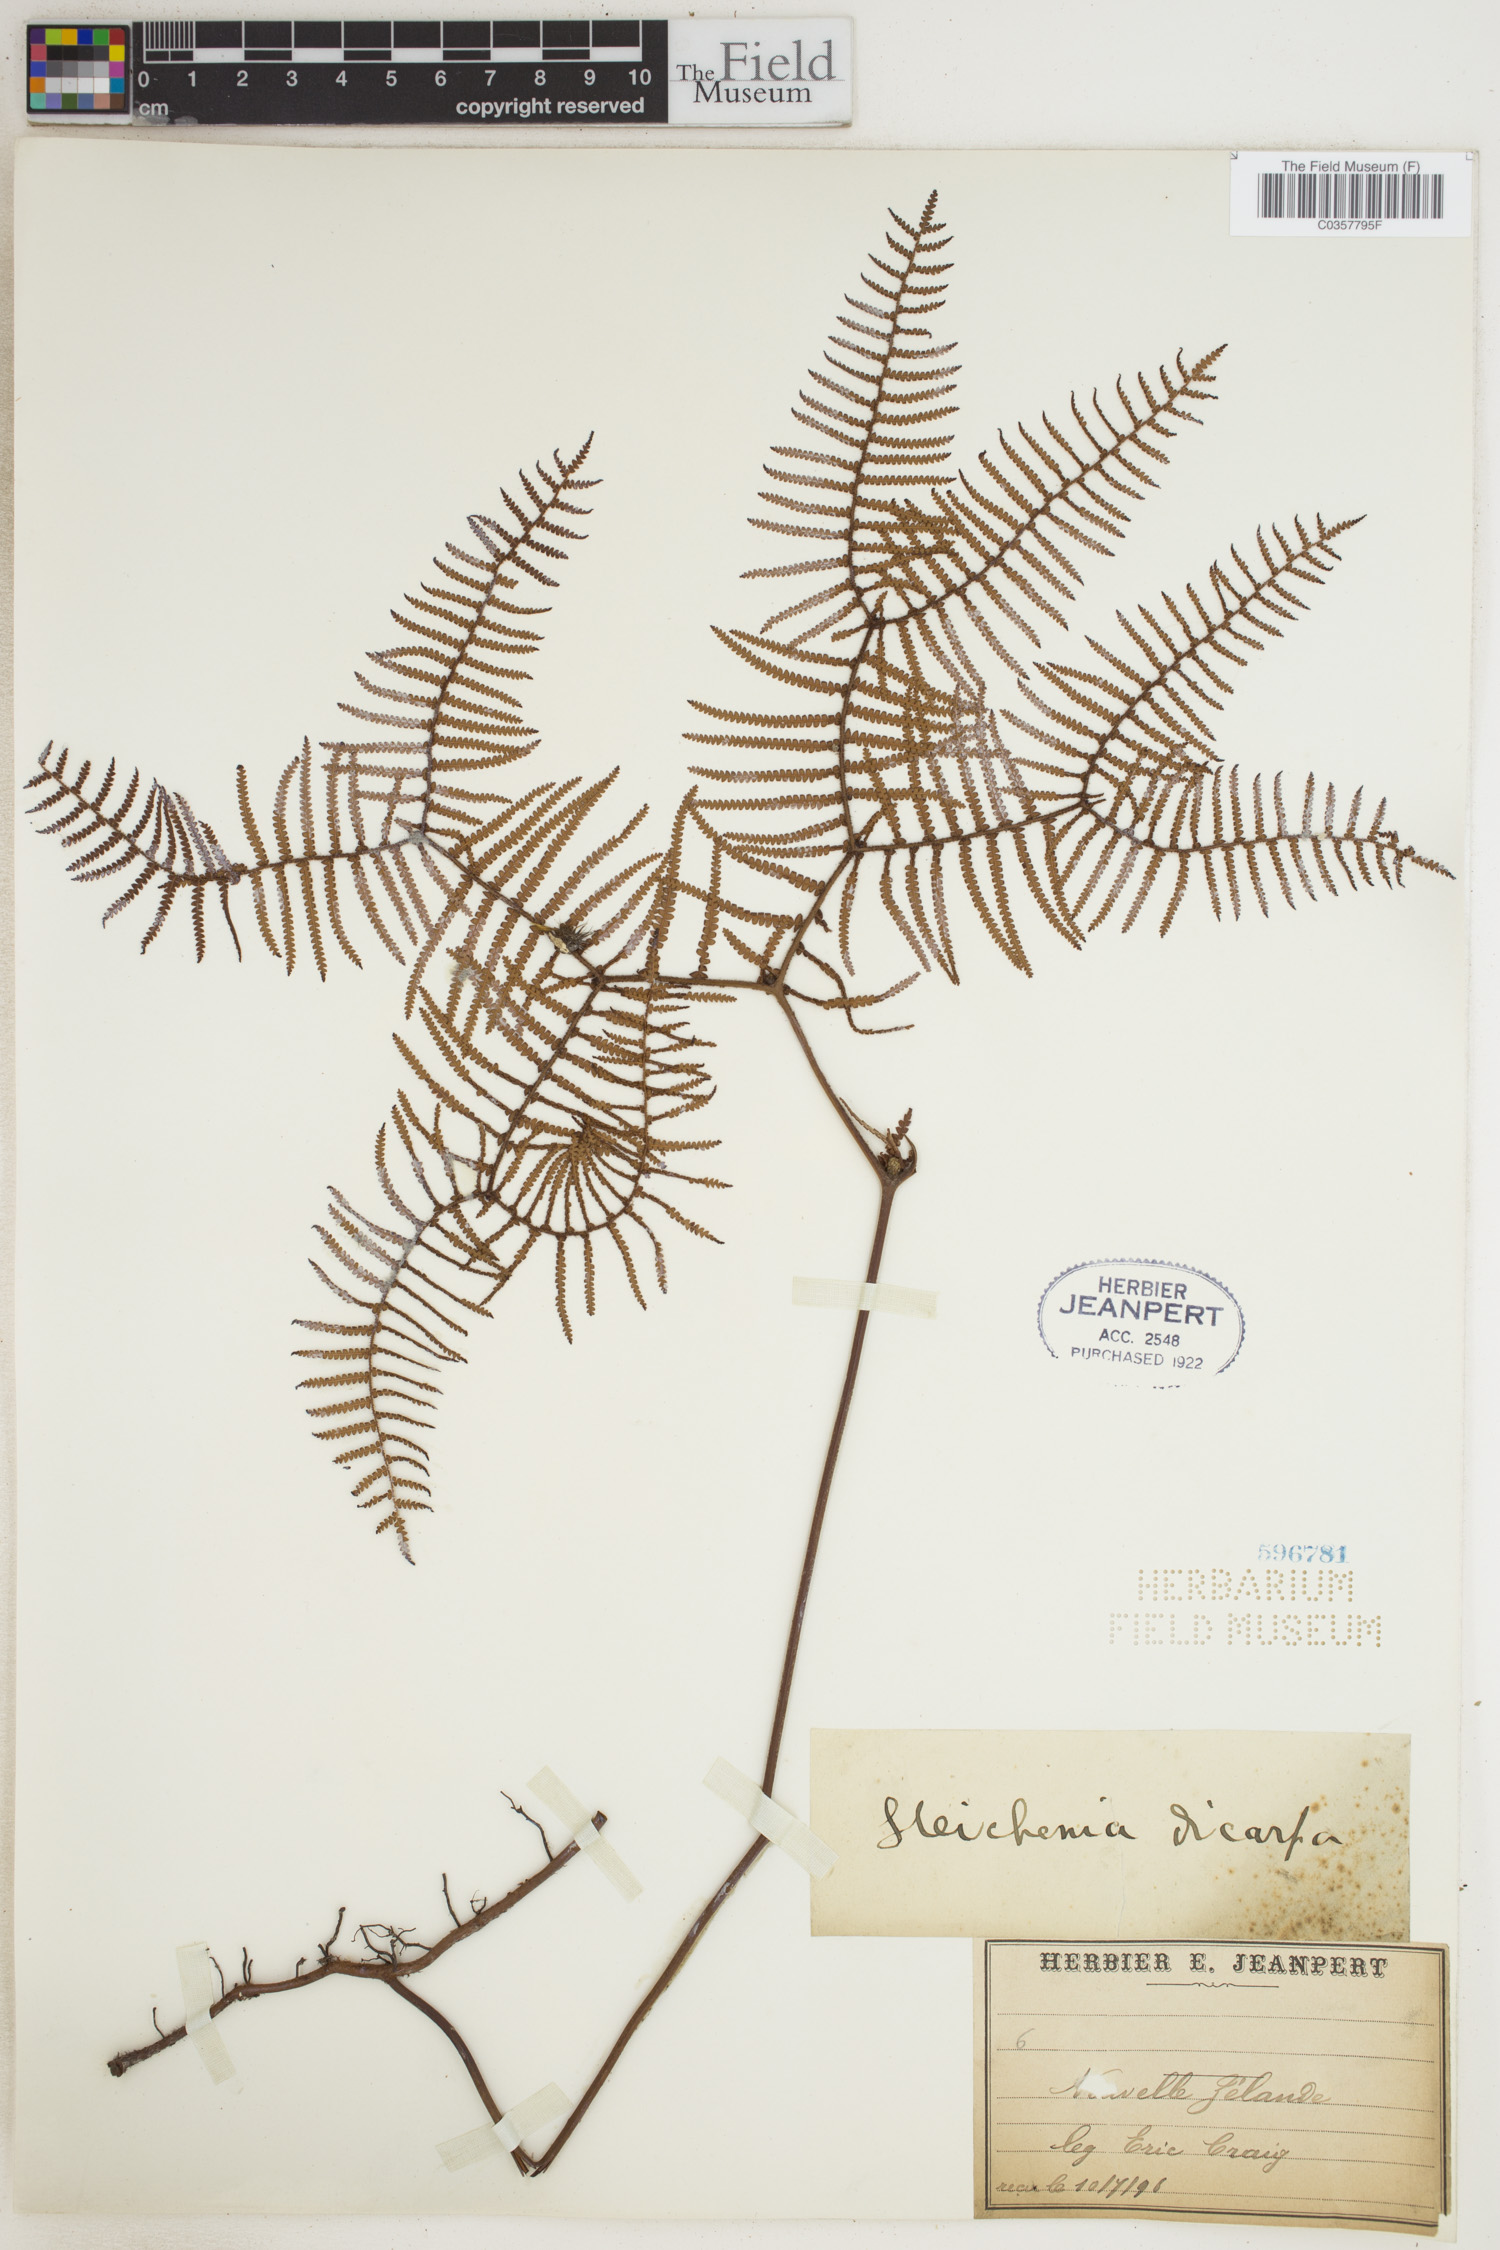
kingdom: Plantae
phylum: Tracheophyta
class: Polypodiopsida
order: Gleicheniales
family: Gleicheniaceae
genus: Gleichenia
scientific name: Gleichenia dicarpa
